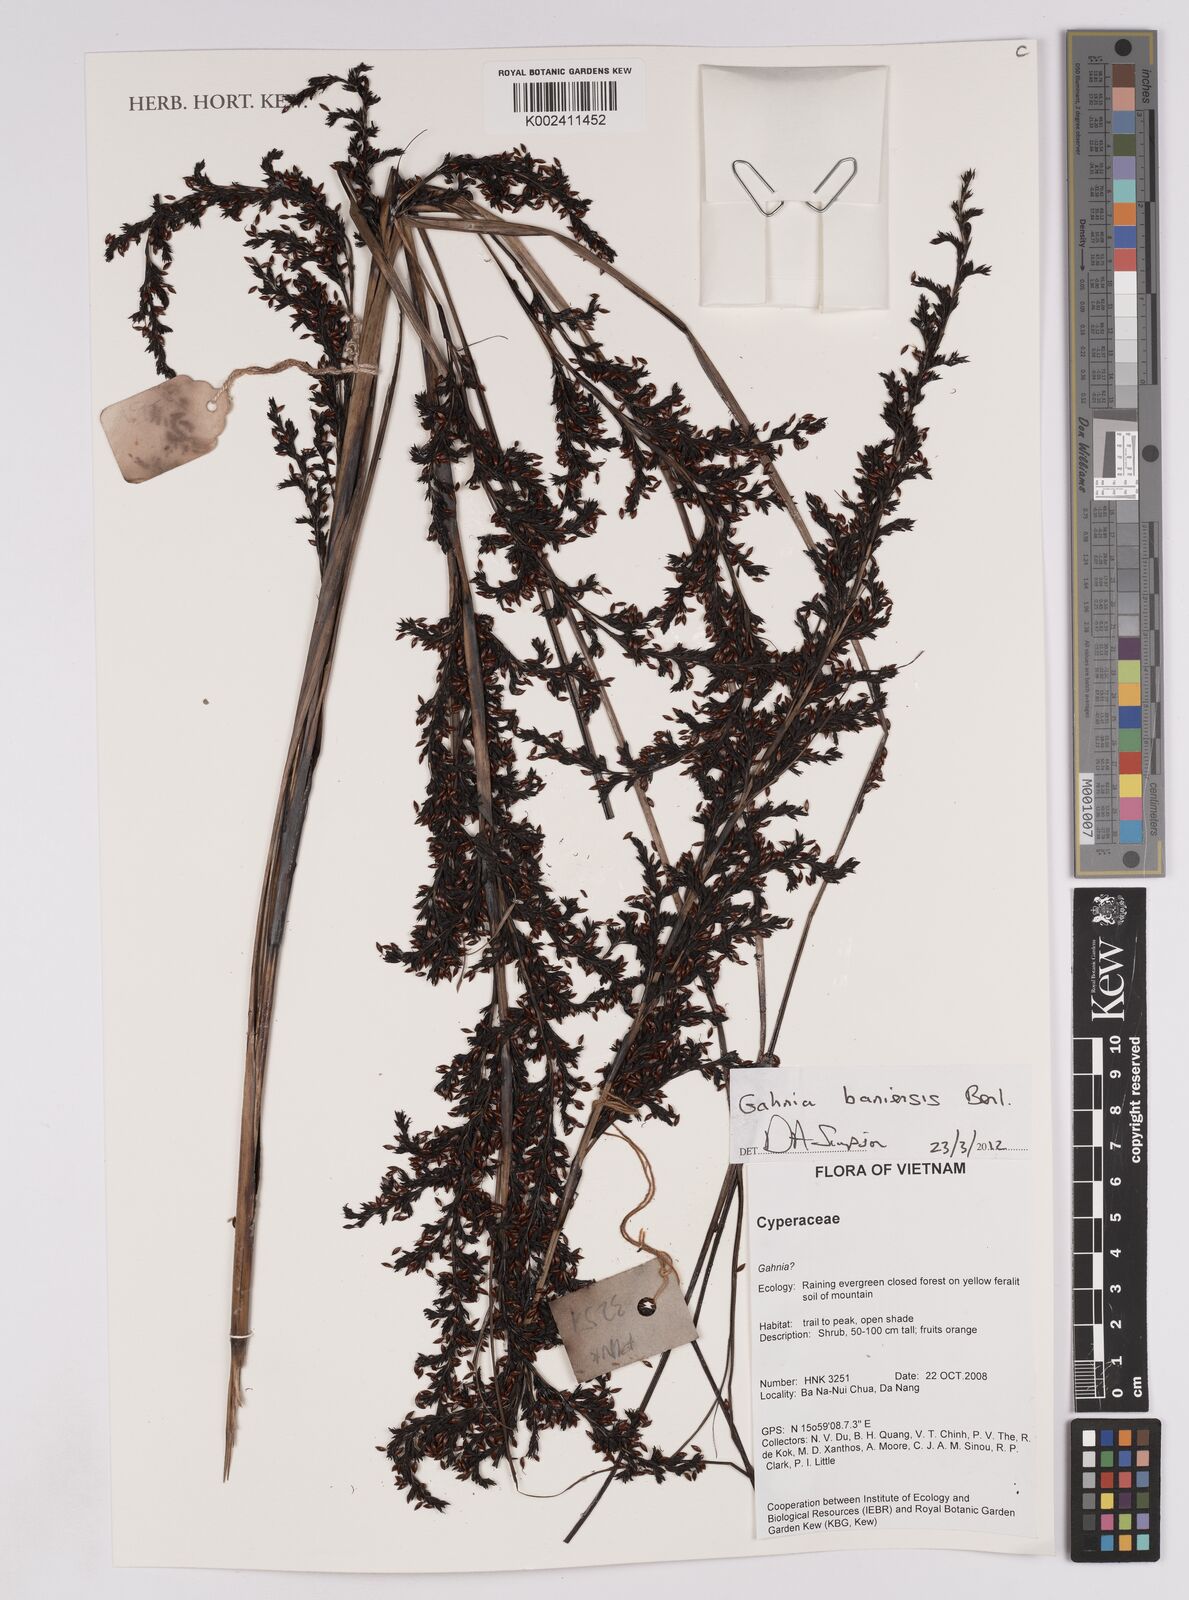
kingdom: Plantae
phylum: Tracheophyta
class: Liliopsida
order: Poales
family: Cyperaceae
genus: Gahnia
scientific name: Gahnia baniensis
